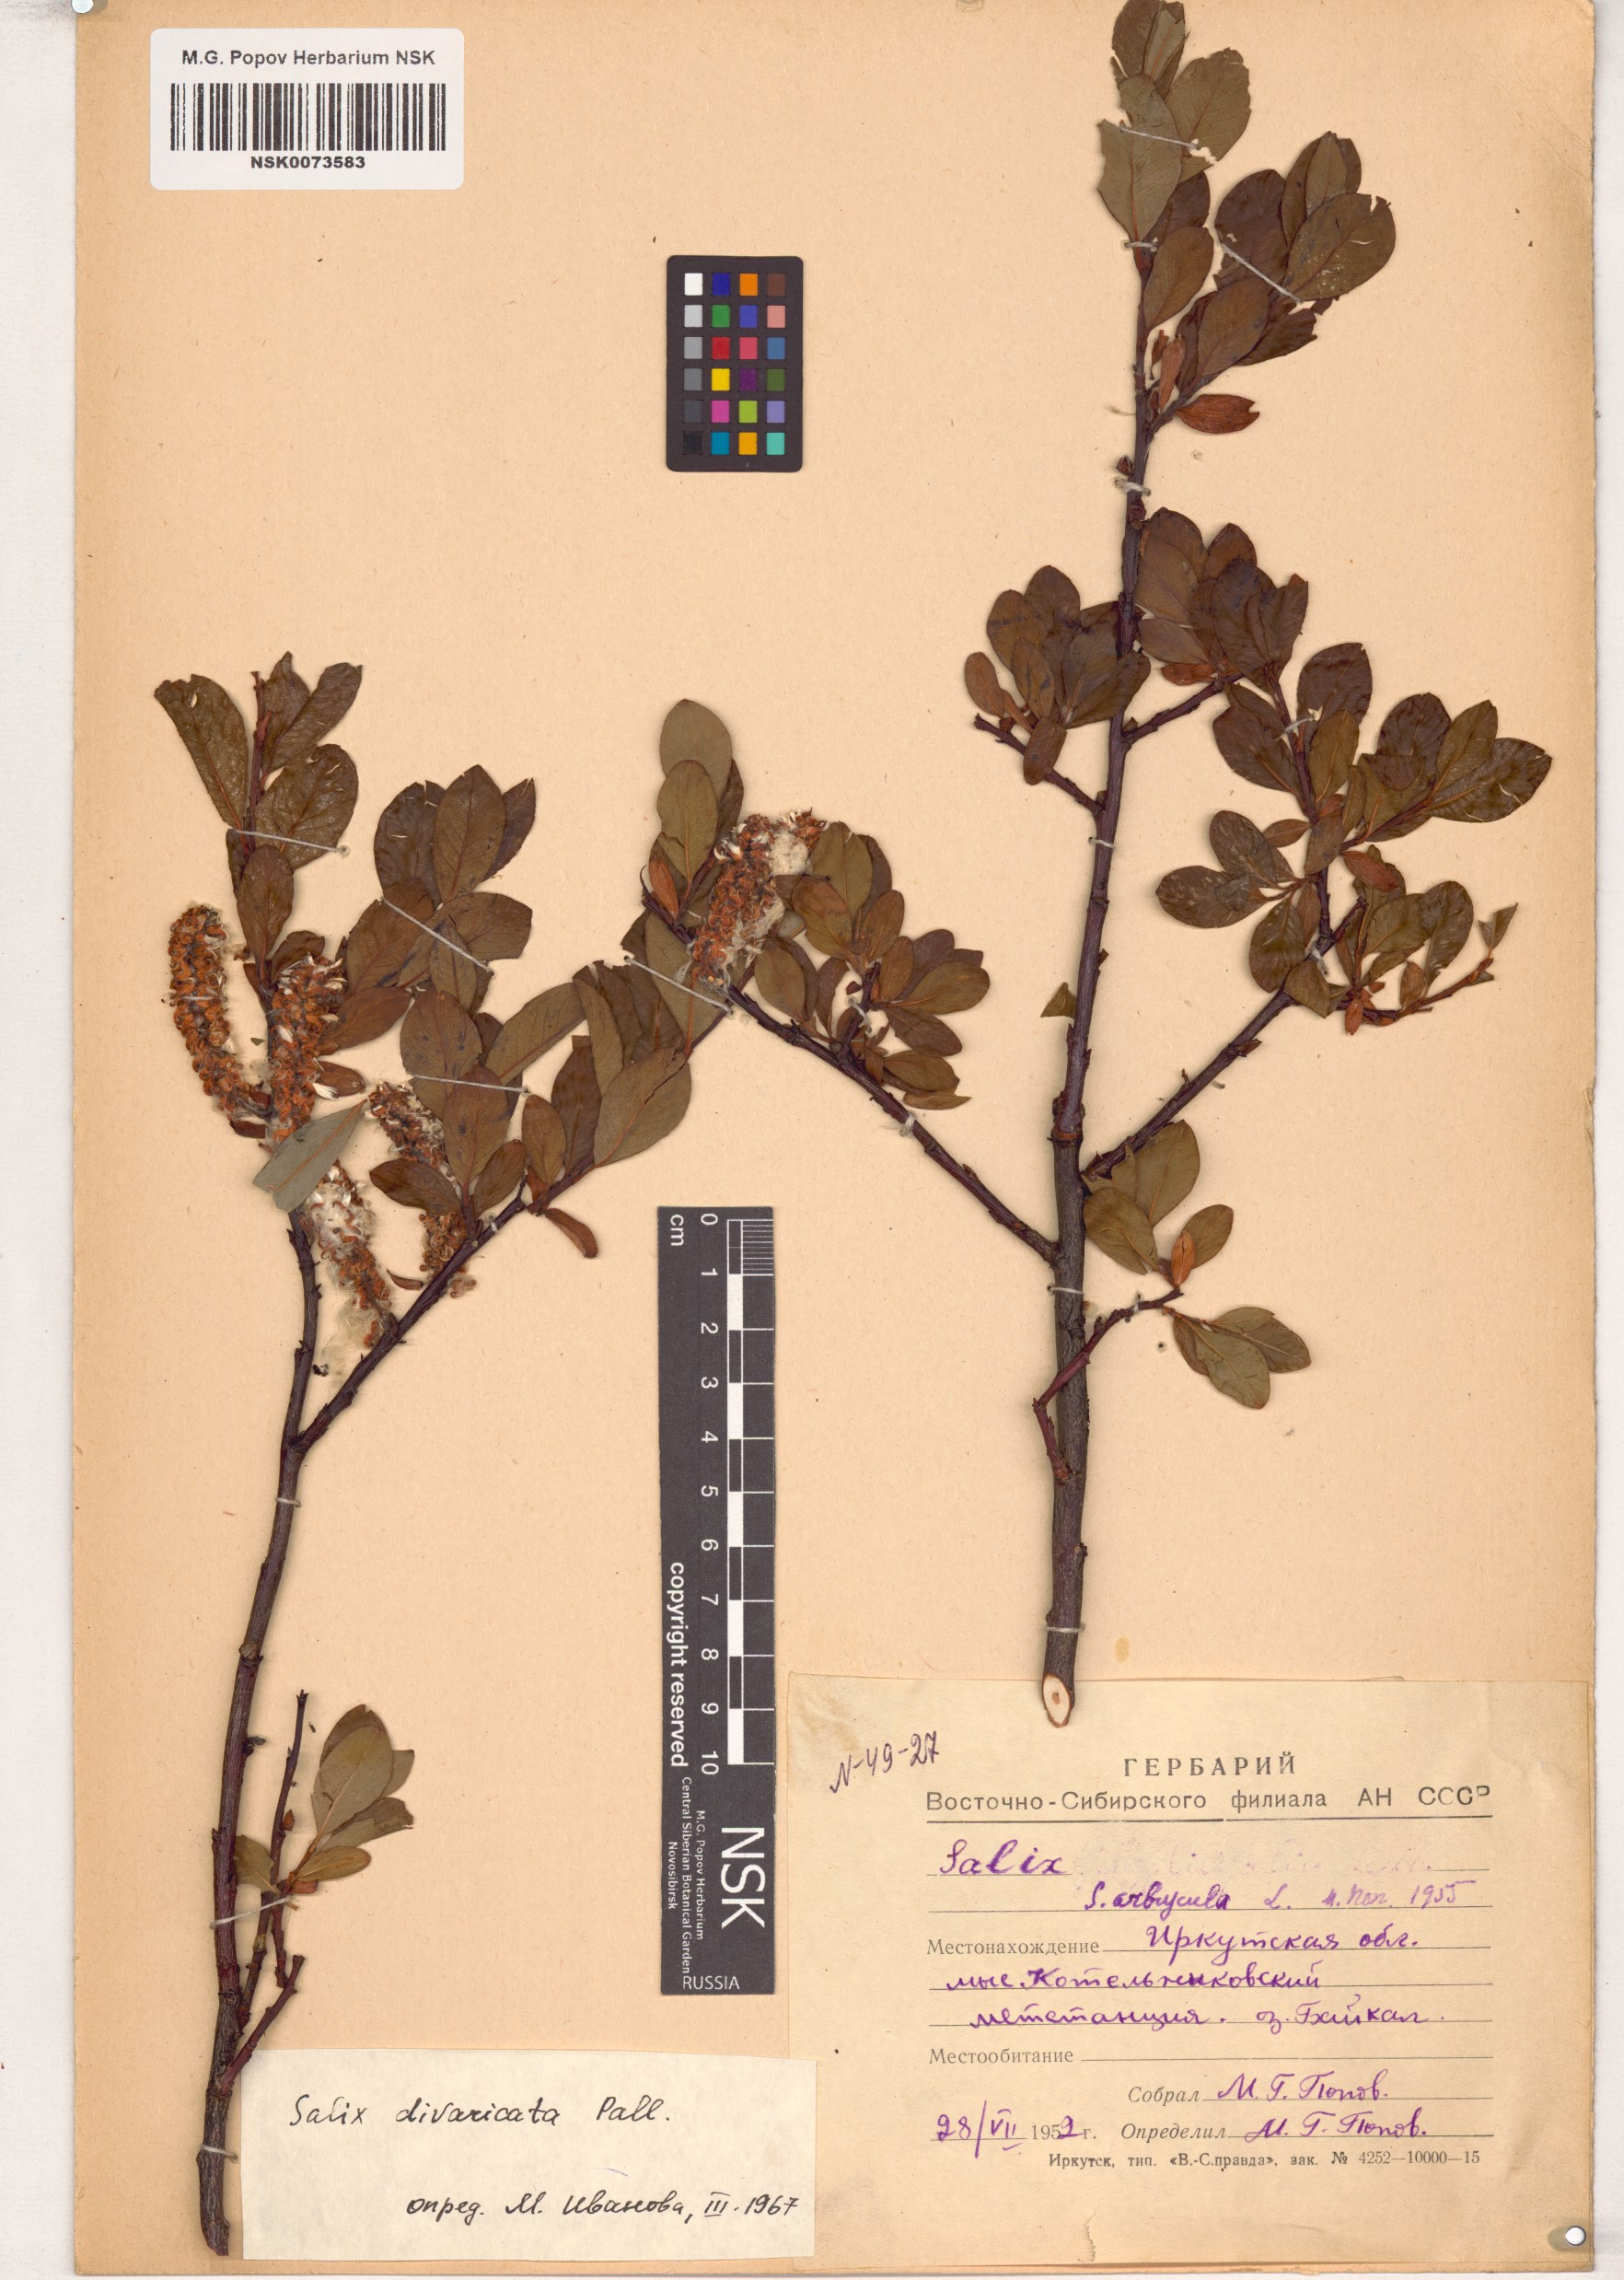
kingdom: Plantae
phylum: Tracheophyta
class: Magnoliopsida
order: Malpighiales
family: Salicaceae
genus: Salix
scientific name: Salix divaricata
